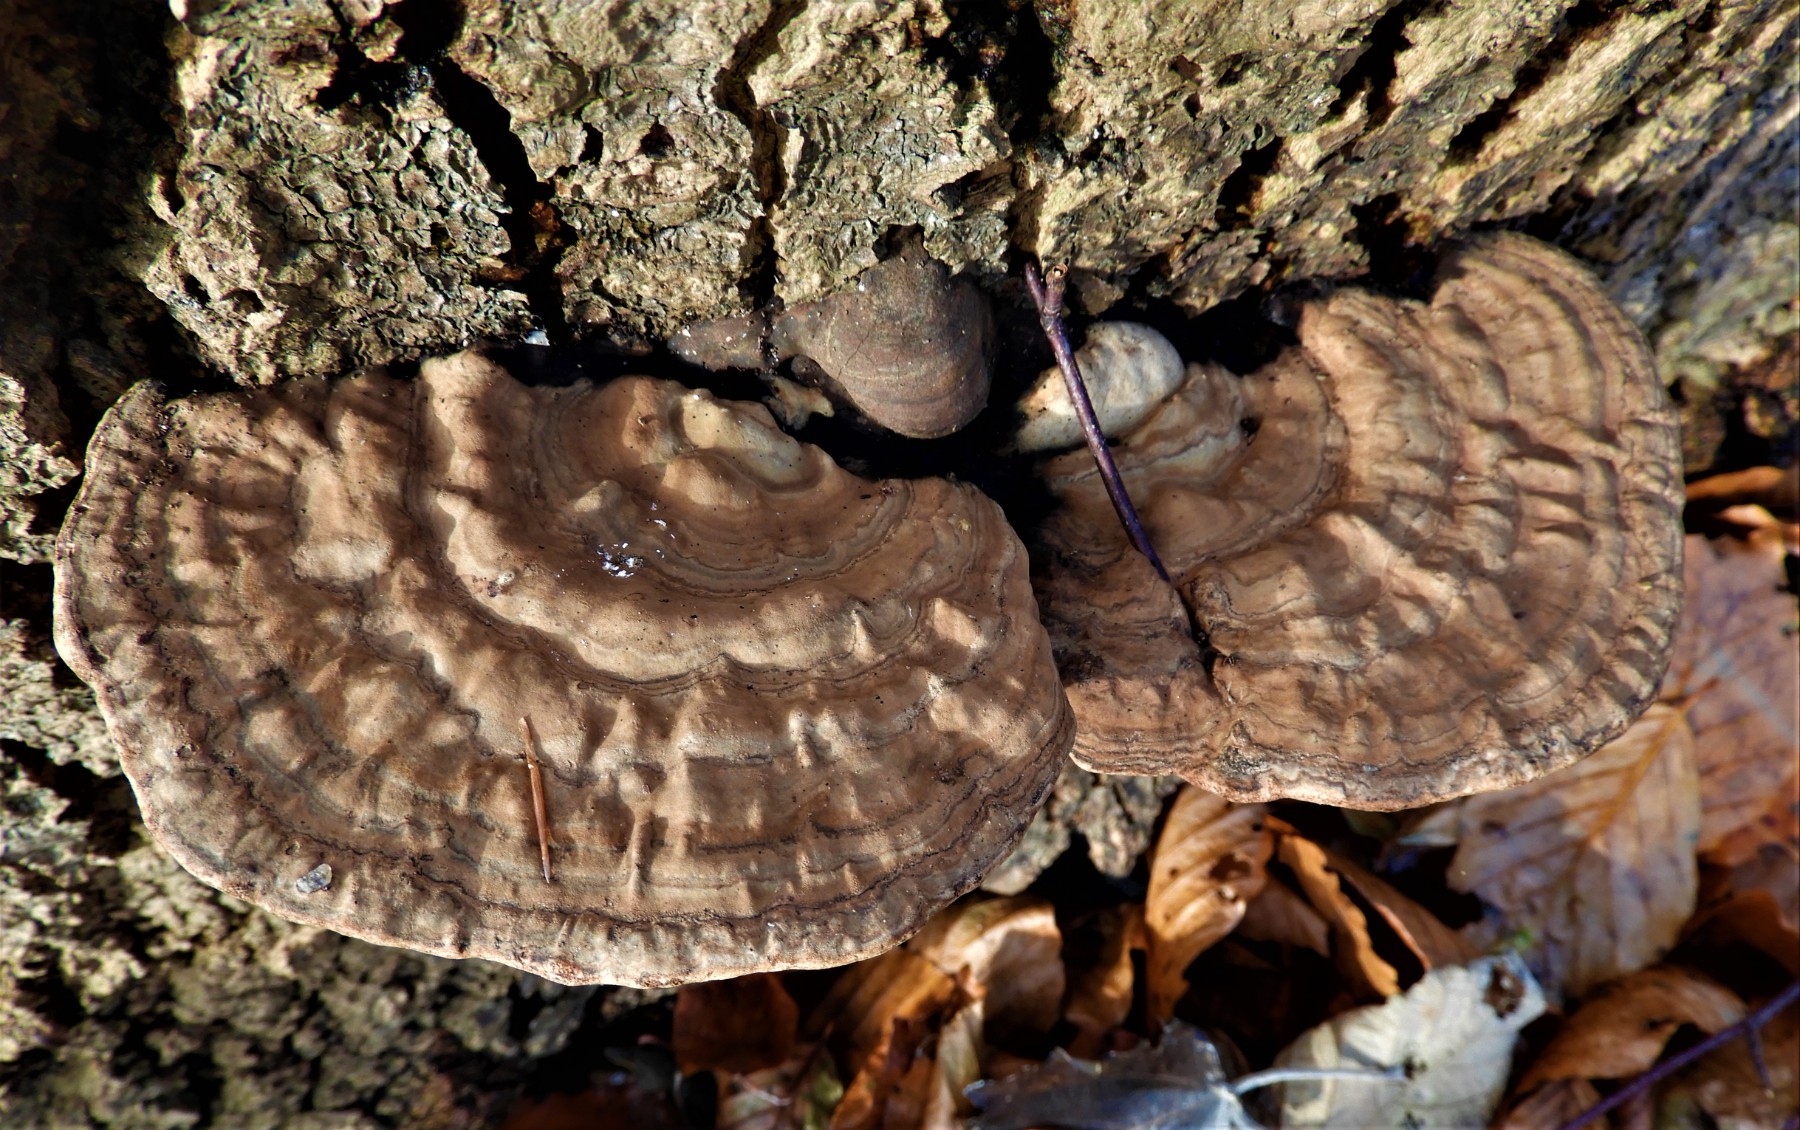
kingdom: Fungi
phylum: Basidiomycota
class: Agaricomycetes
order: Polyporales
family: Polyporaceae
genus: Ganoderma
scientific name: Ganoderma applanatum
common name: flad lakporesvamp
